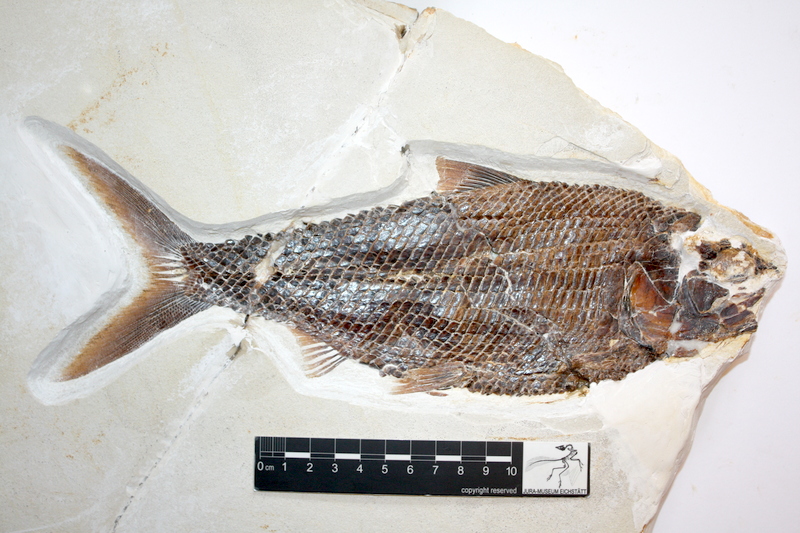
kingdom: Animalia
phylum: Chordata
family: Ankylophoridae
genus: Pholidophoristion
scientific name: Pholidophoristion ovatus
